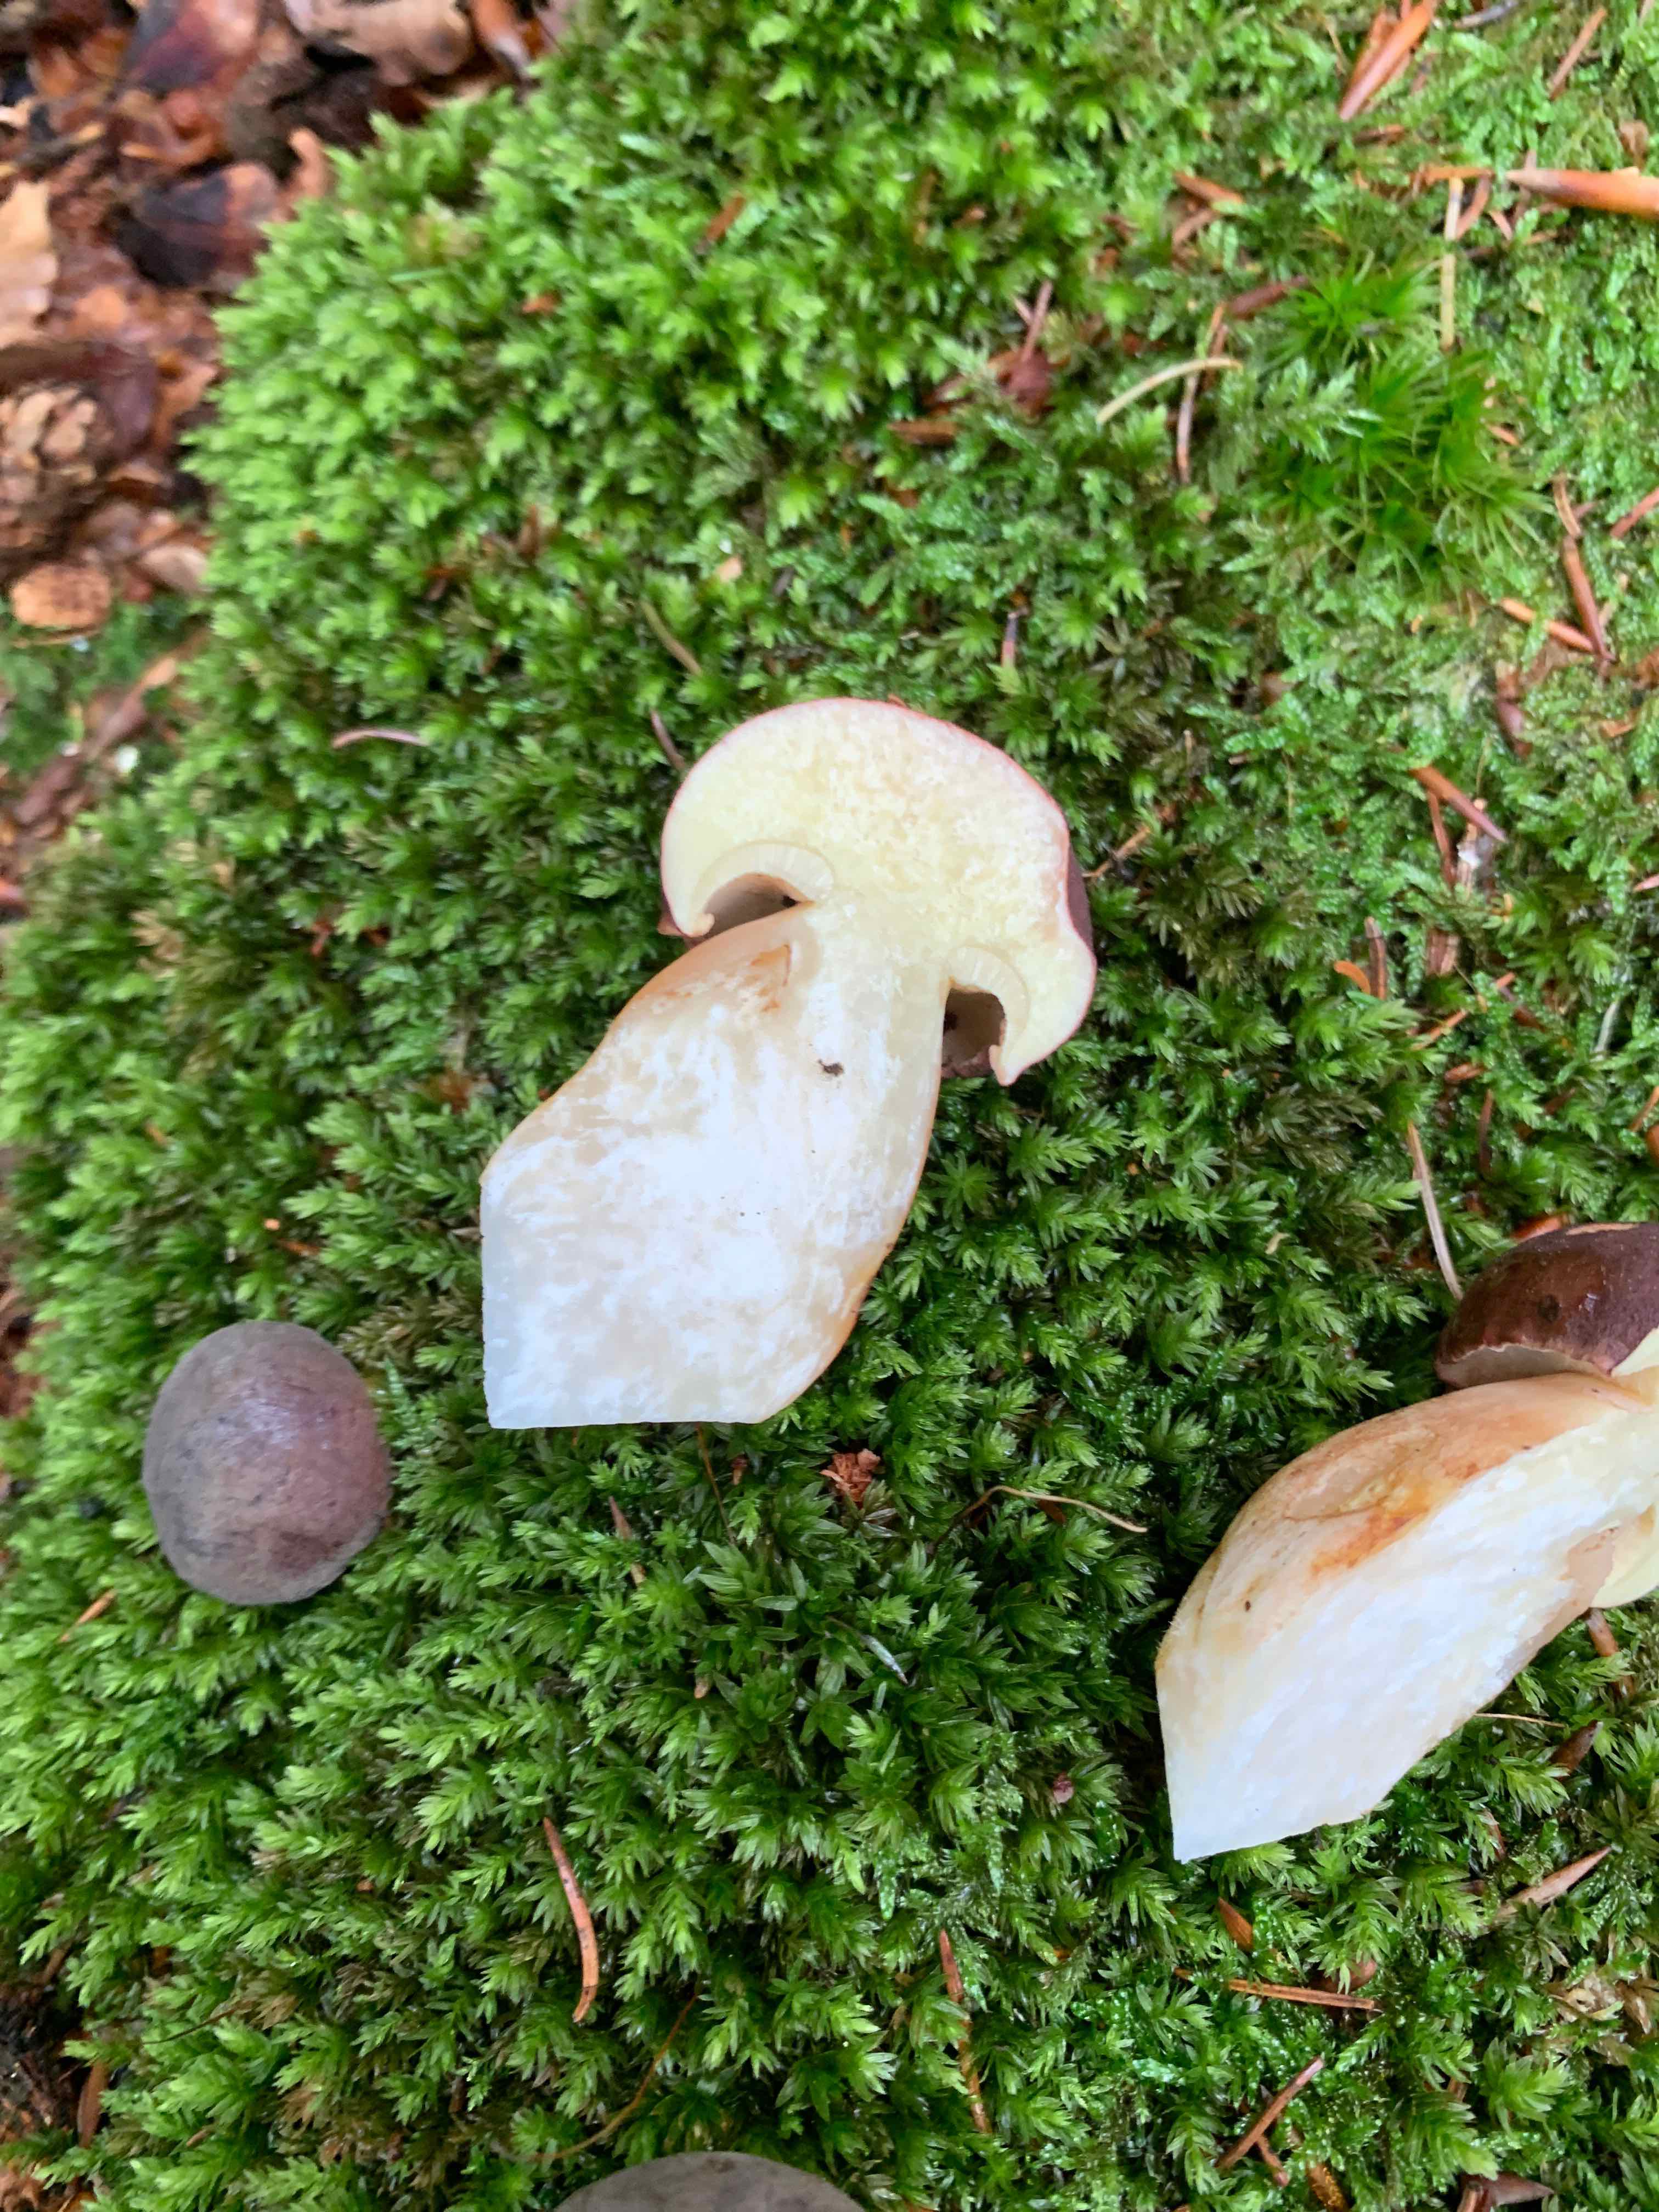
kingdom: Fungi
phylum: Basidiomycota
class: Agaricomycetes
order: Boletales
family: Boletaceae
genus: Imleria
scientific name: Imleria badia
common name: brunstokket rørhat
